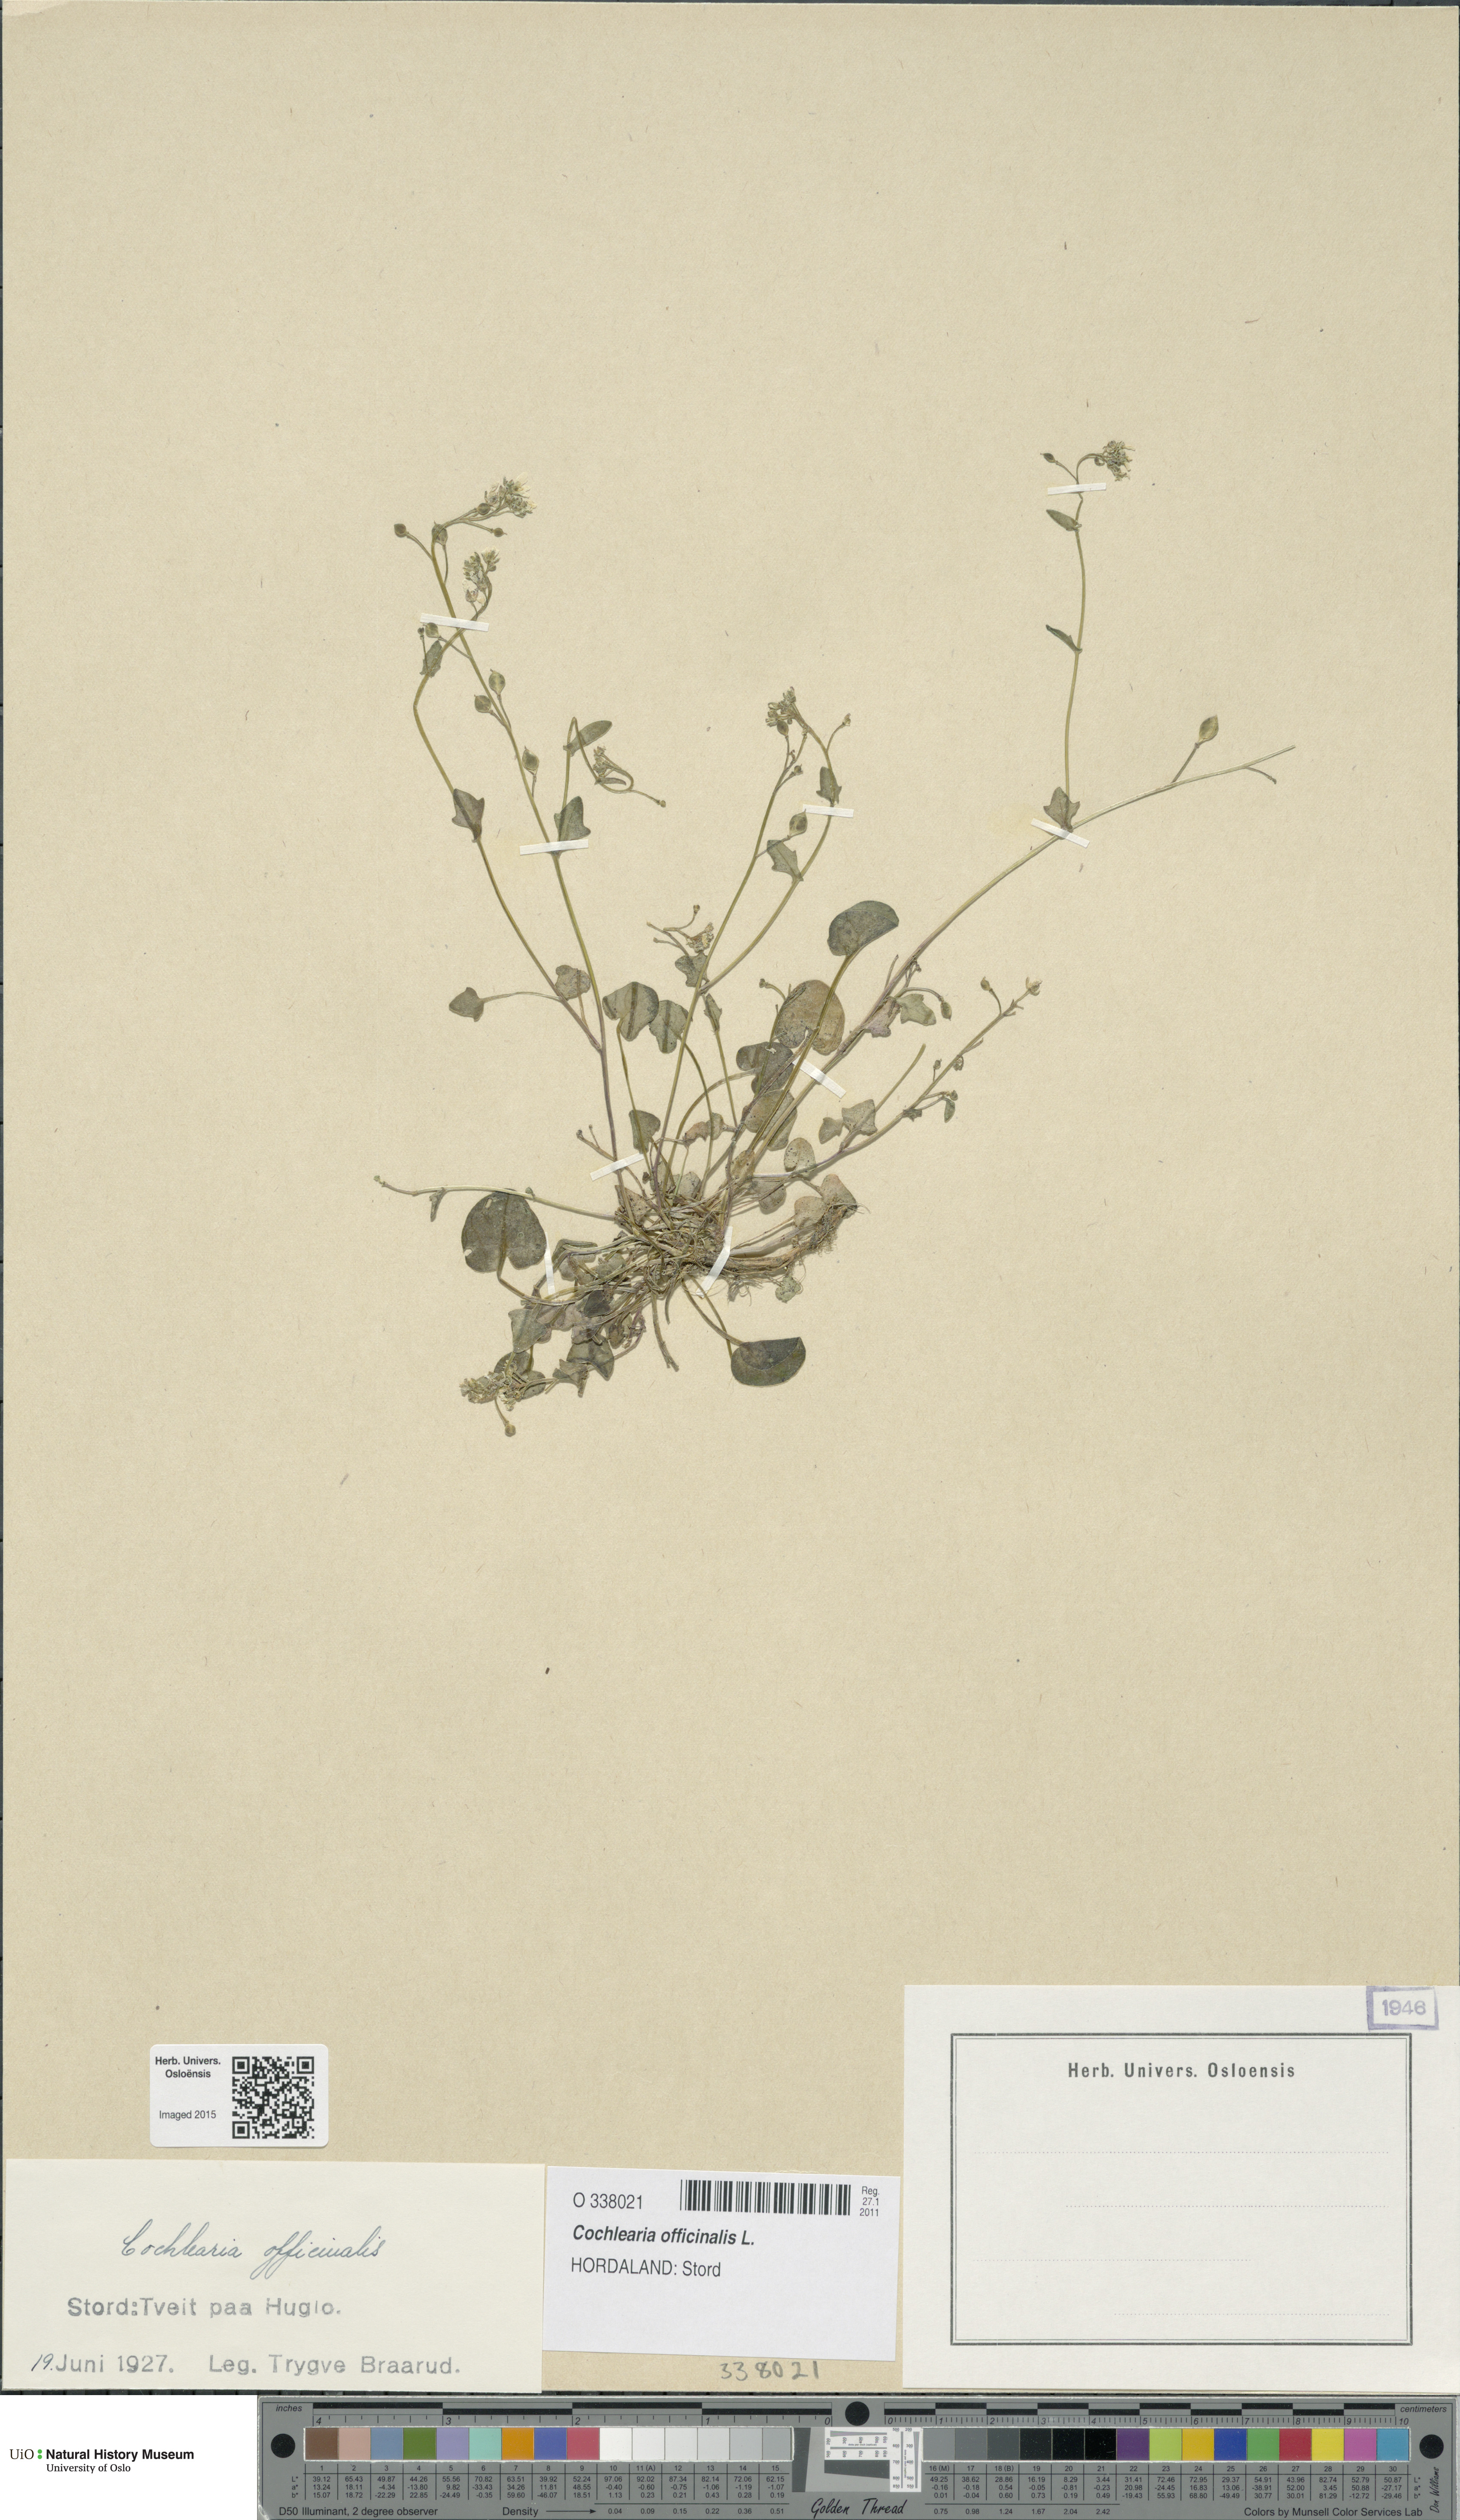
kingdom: Plantae
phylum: Tracheophyta
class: Magnoliopsida
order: Brassicales
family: Brassicaceae
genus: Cochlearia
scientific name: Cochlearia officinalis
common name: Scurvy-grass
